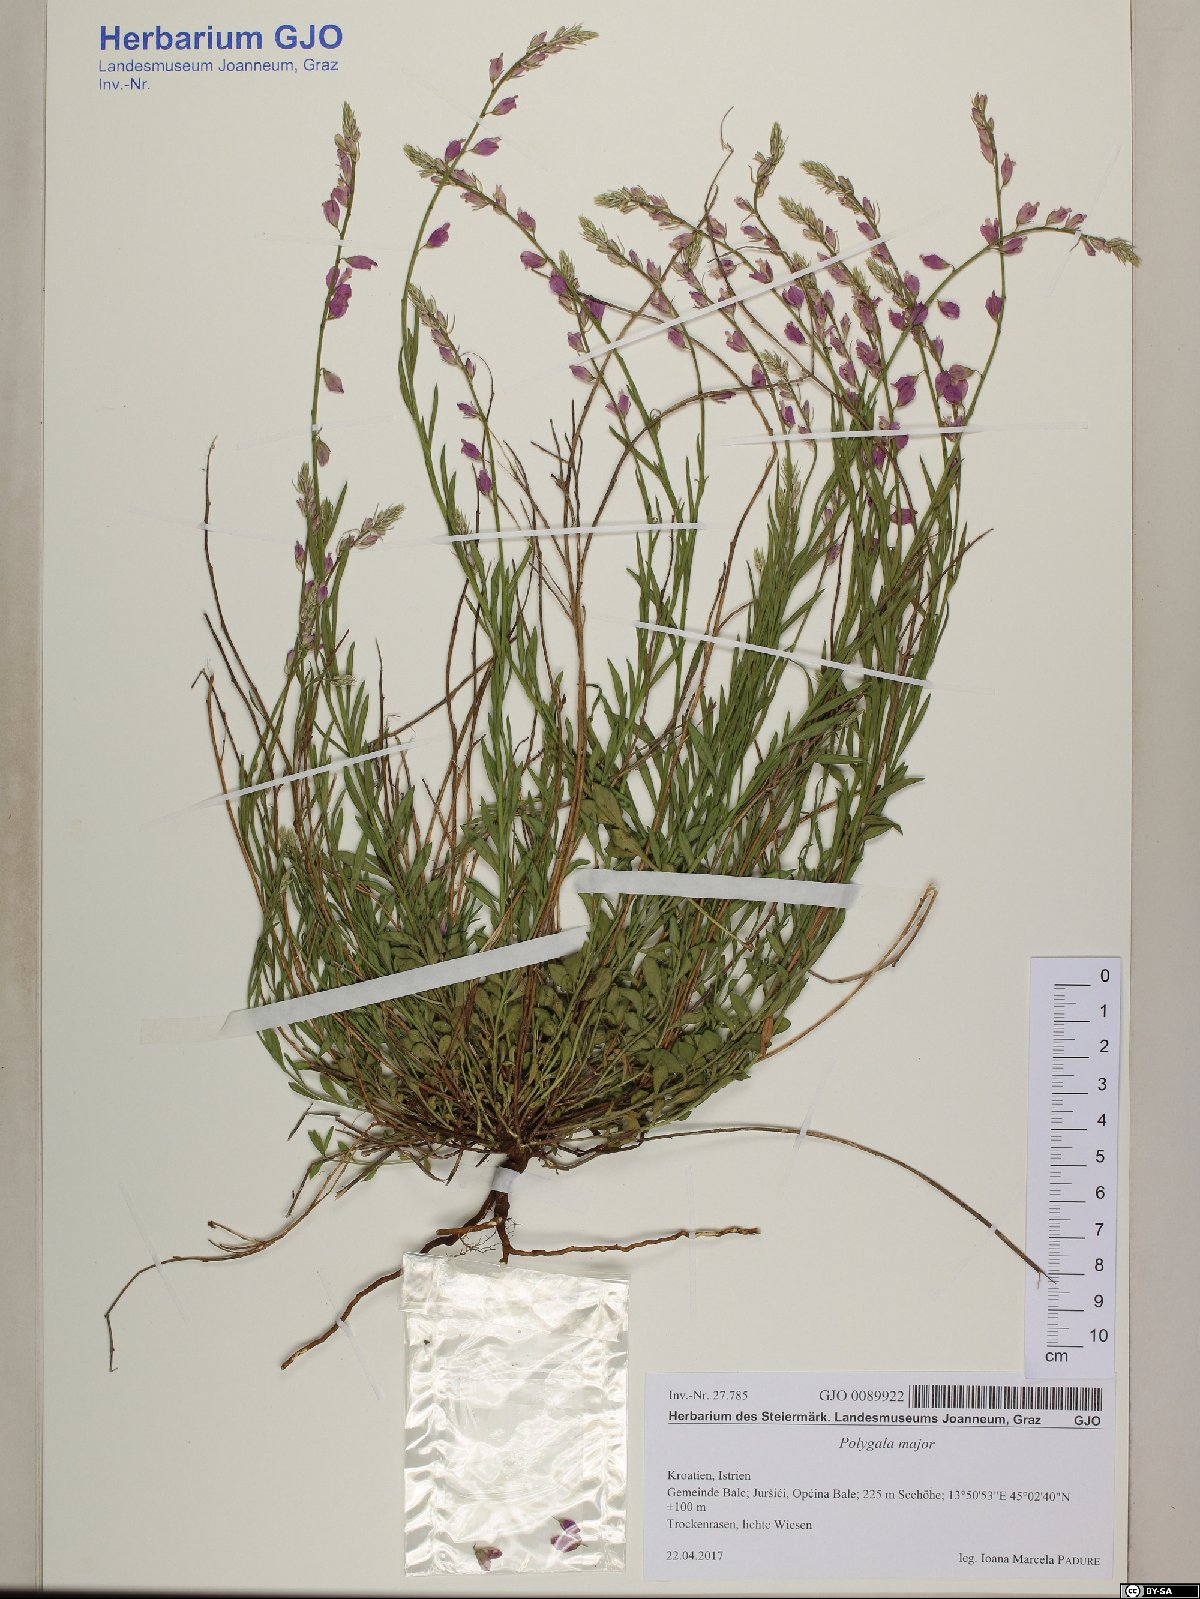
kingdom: Plantae
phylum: Tracheophyta
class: Magnoliopsida
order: Fabales
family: Polygalaceae
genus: Polygala
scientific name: Polygala
